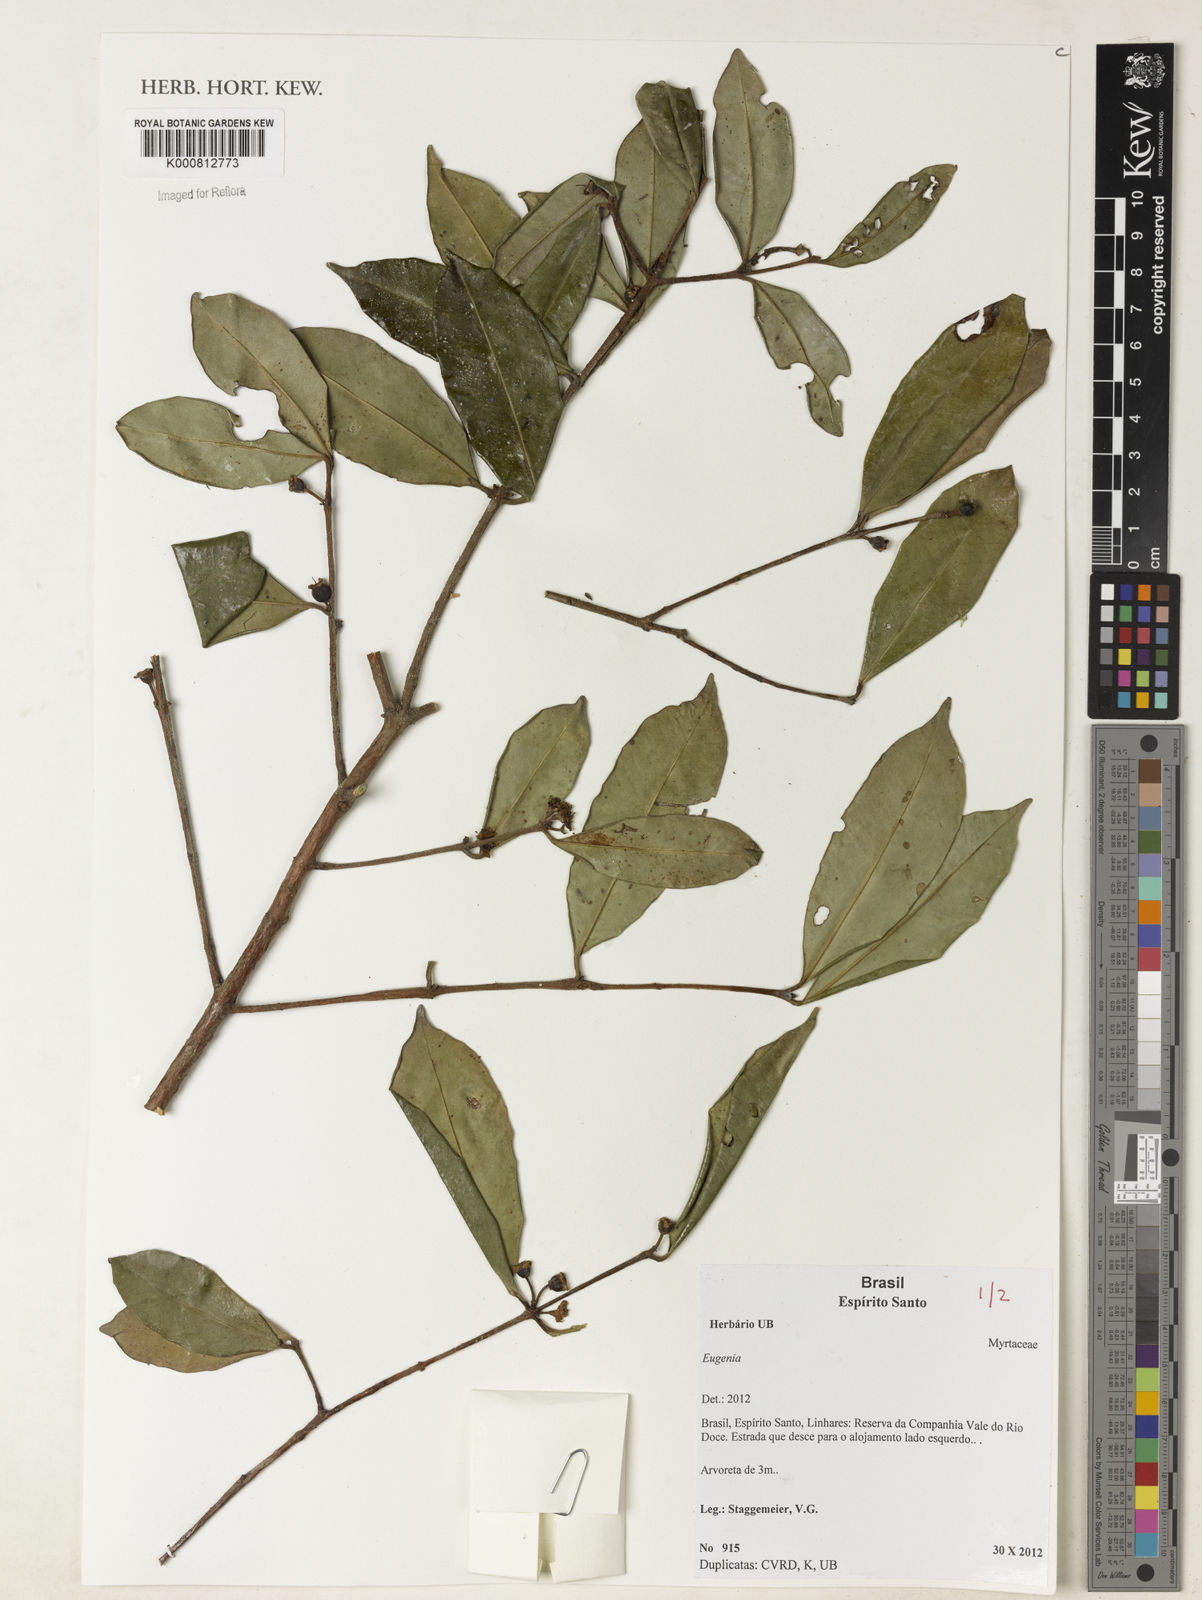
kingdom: Plantae
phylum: Tracheophyta
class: Magnoliopsida
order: Myrtales
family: Myrtaceae
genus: Eugenia
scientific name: Eugenia pisiformis
